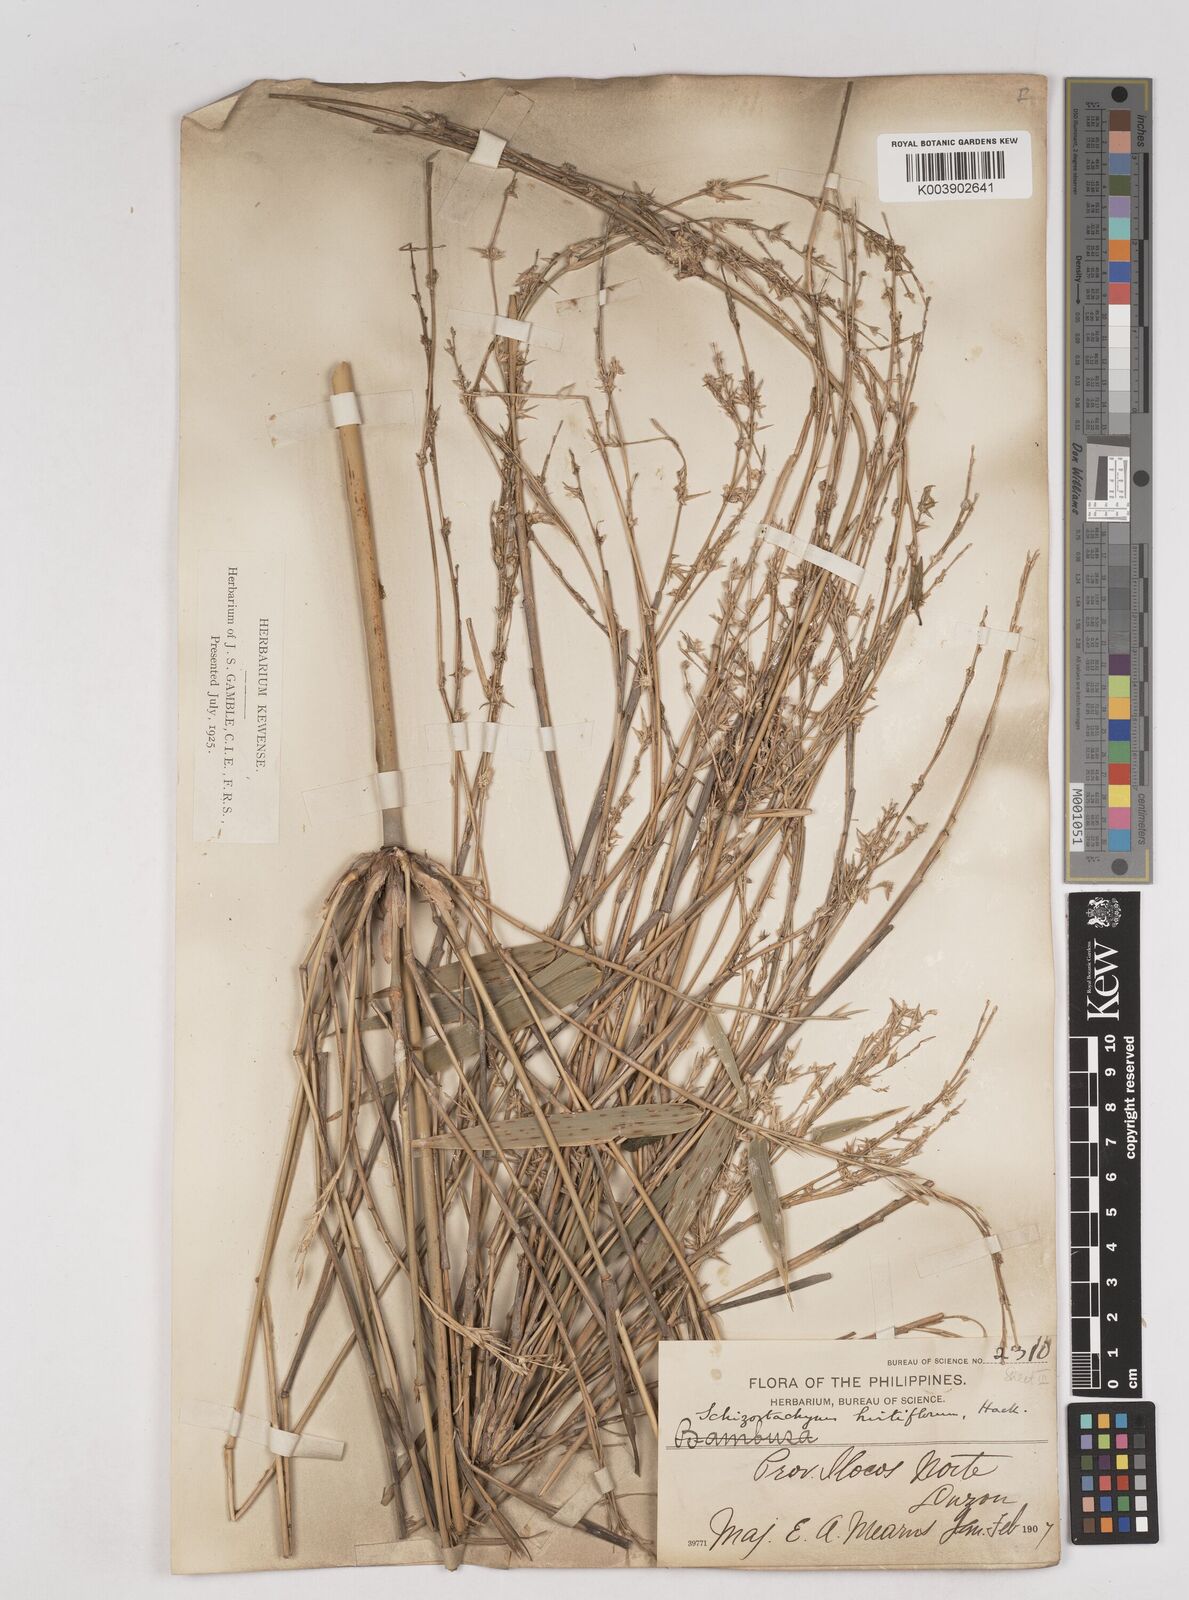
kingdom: Plantae
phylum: Tracheophyta
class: Liliopsida
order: Poales
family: Poaceae
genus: Schizostachyum
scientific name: Schizostachyum lumampao
